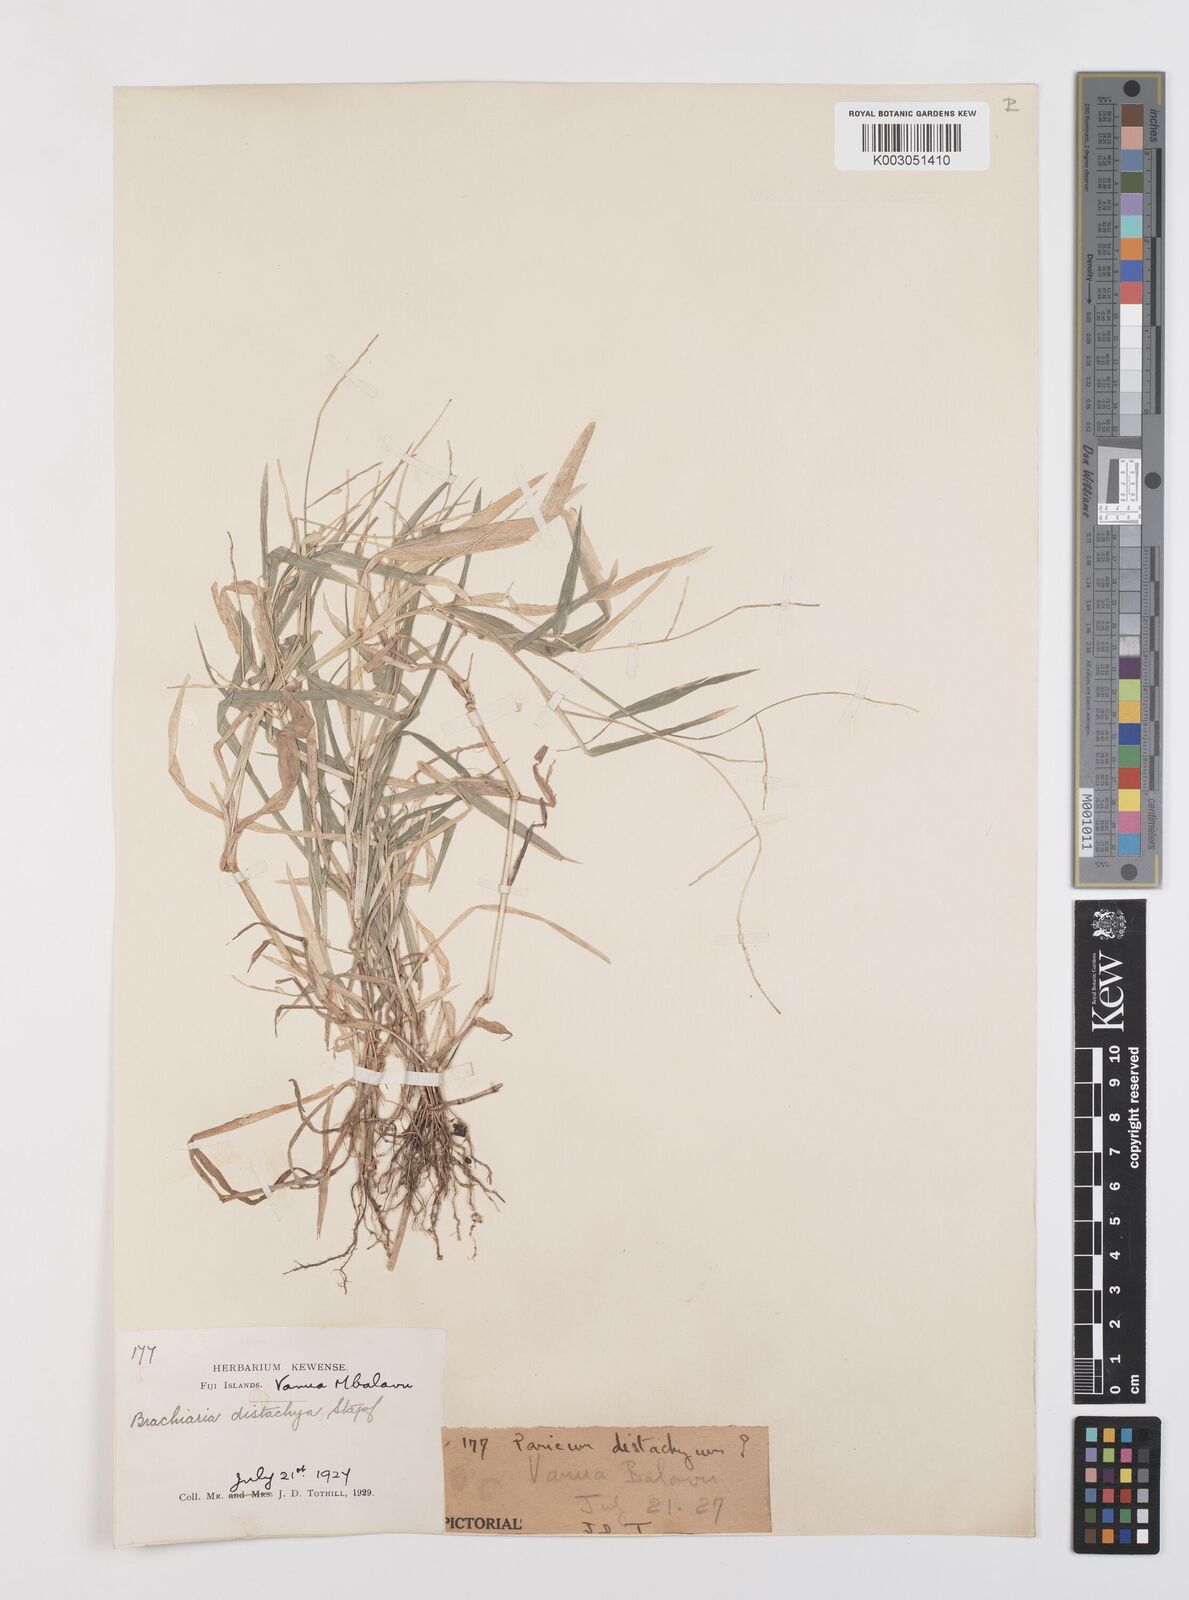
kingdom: Plantae
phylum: Tracheophyta
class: Liliopsida
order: Poales
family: Poaceae
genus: Urochloa
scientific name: Urochloa subquadripara
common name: Armgrass millet
